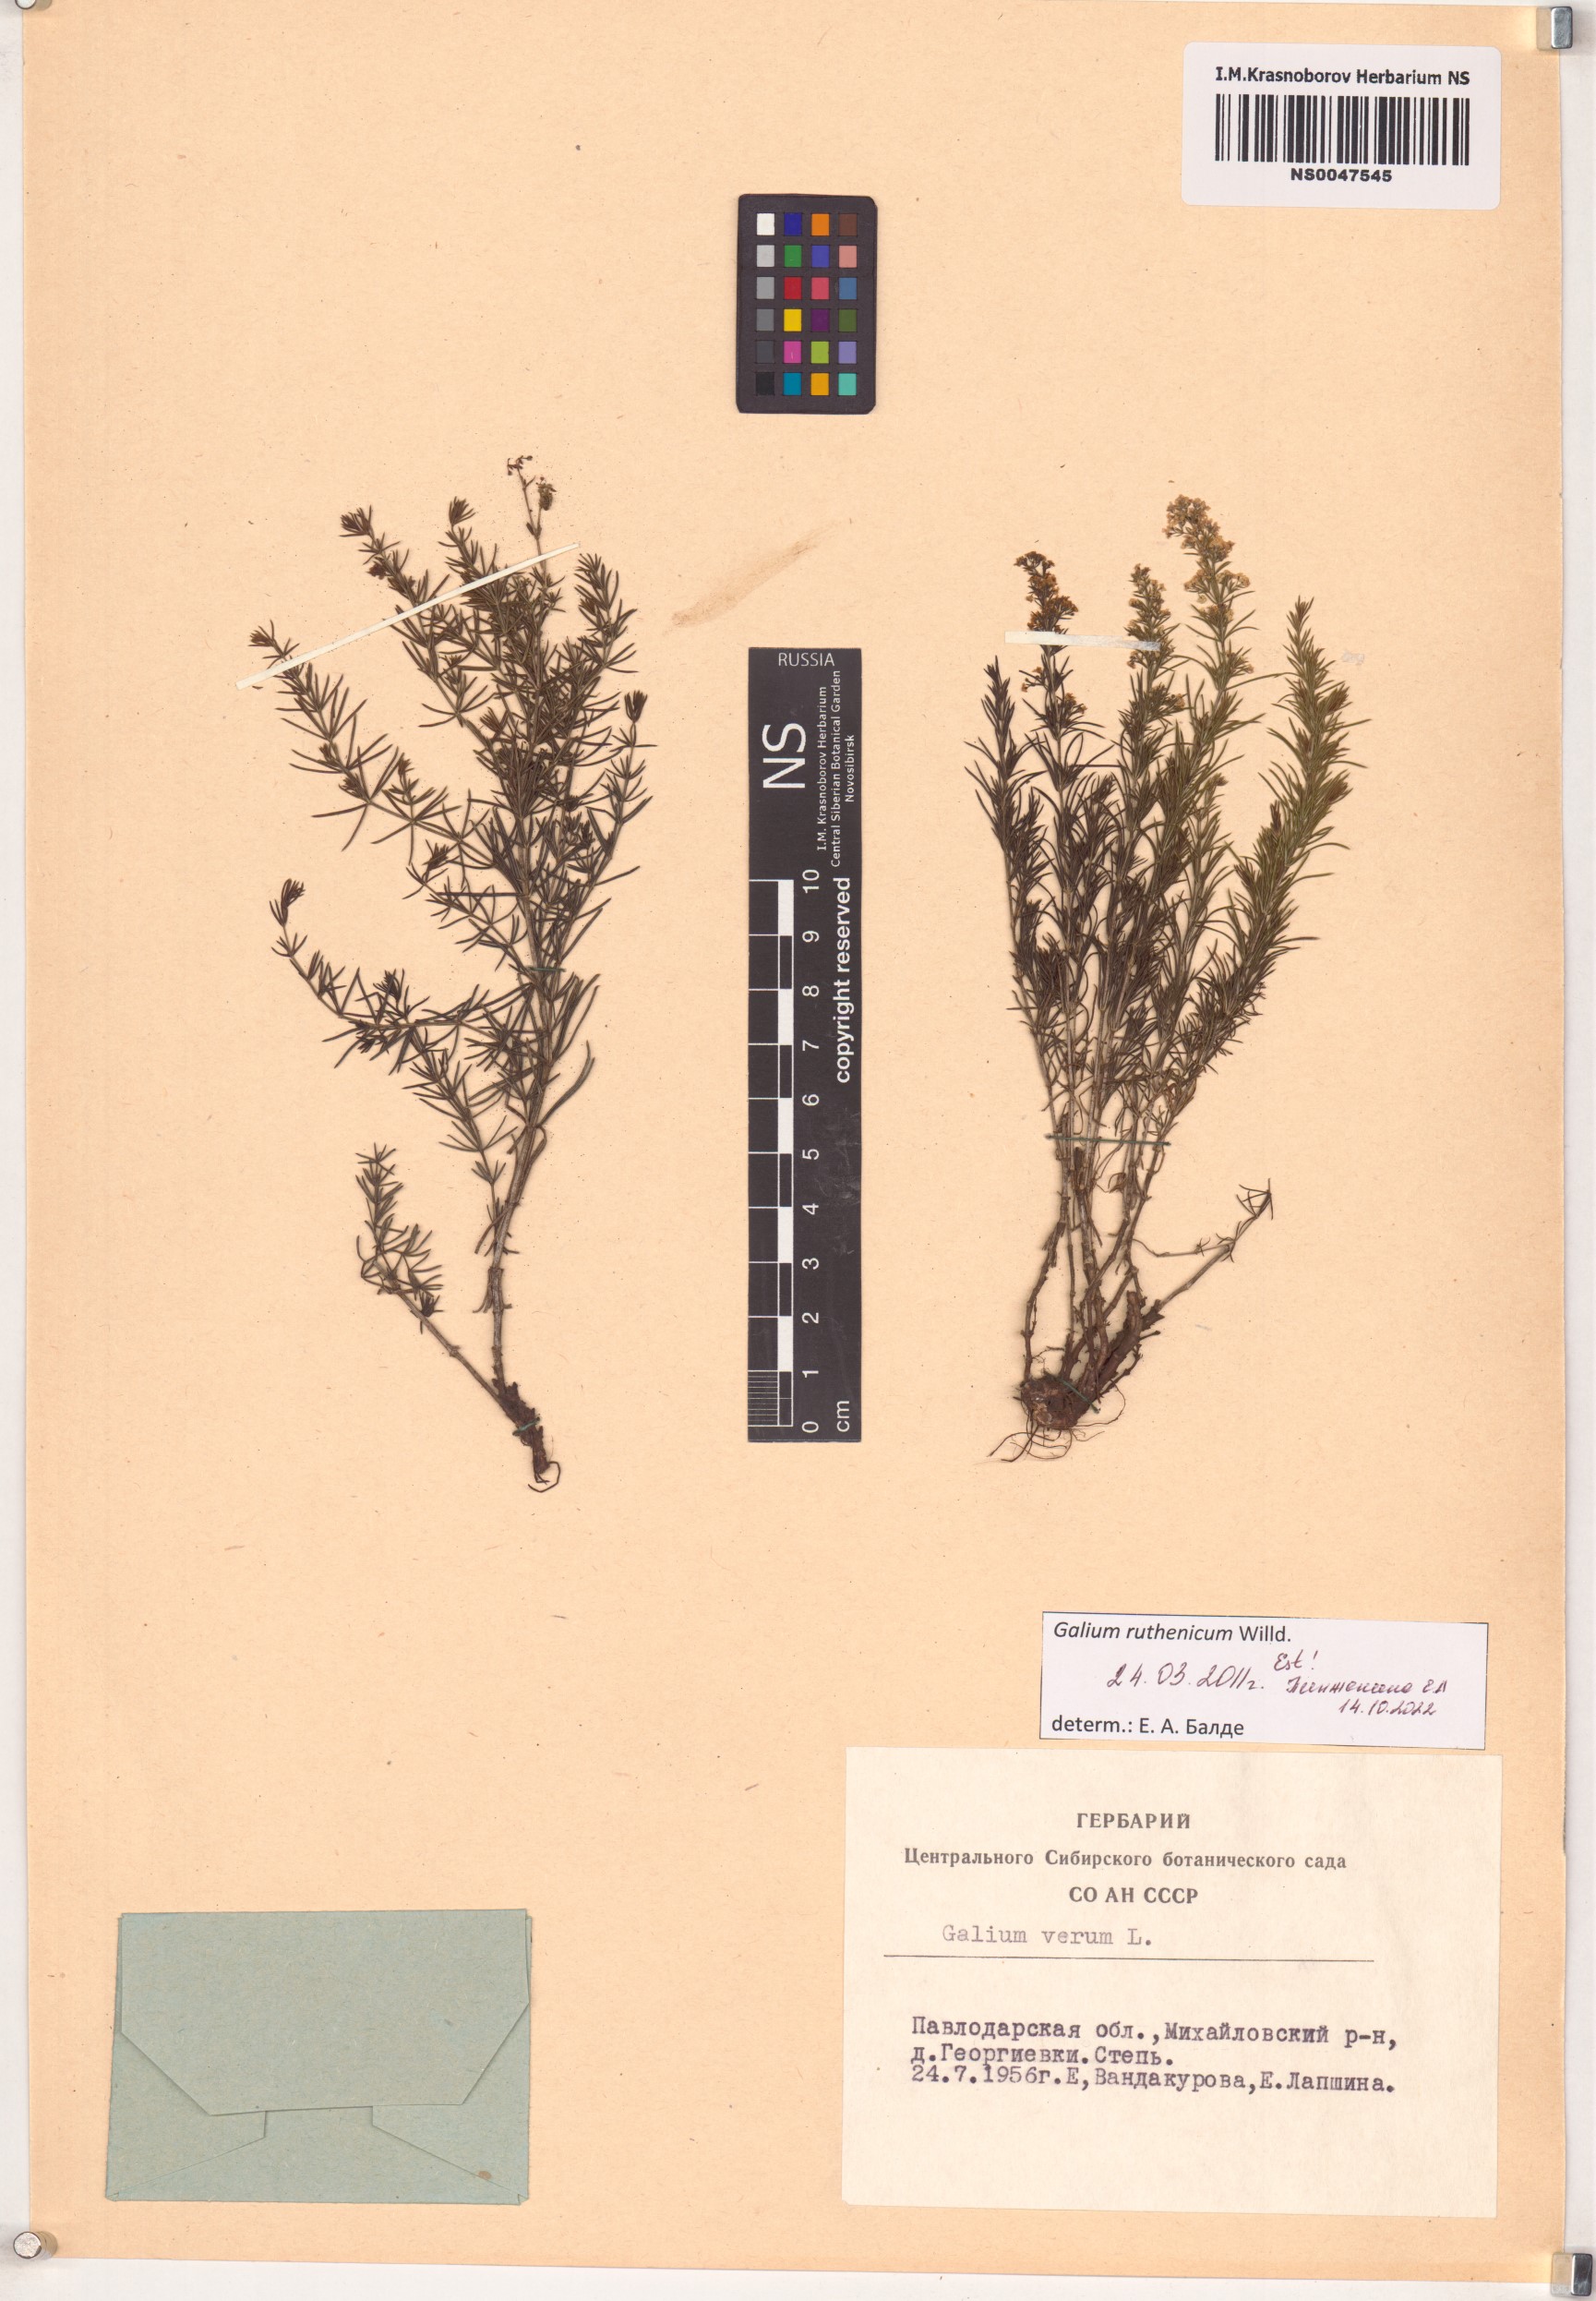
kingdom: Plantae
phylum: Tracheophyta
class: Magnoliopsida
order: Gentianales
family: Rubiaceae
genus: Galium
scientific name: Galium verum
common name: Lady's bedstraw
